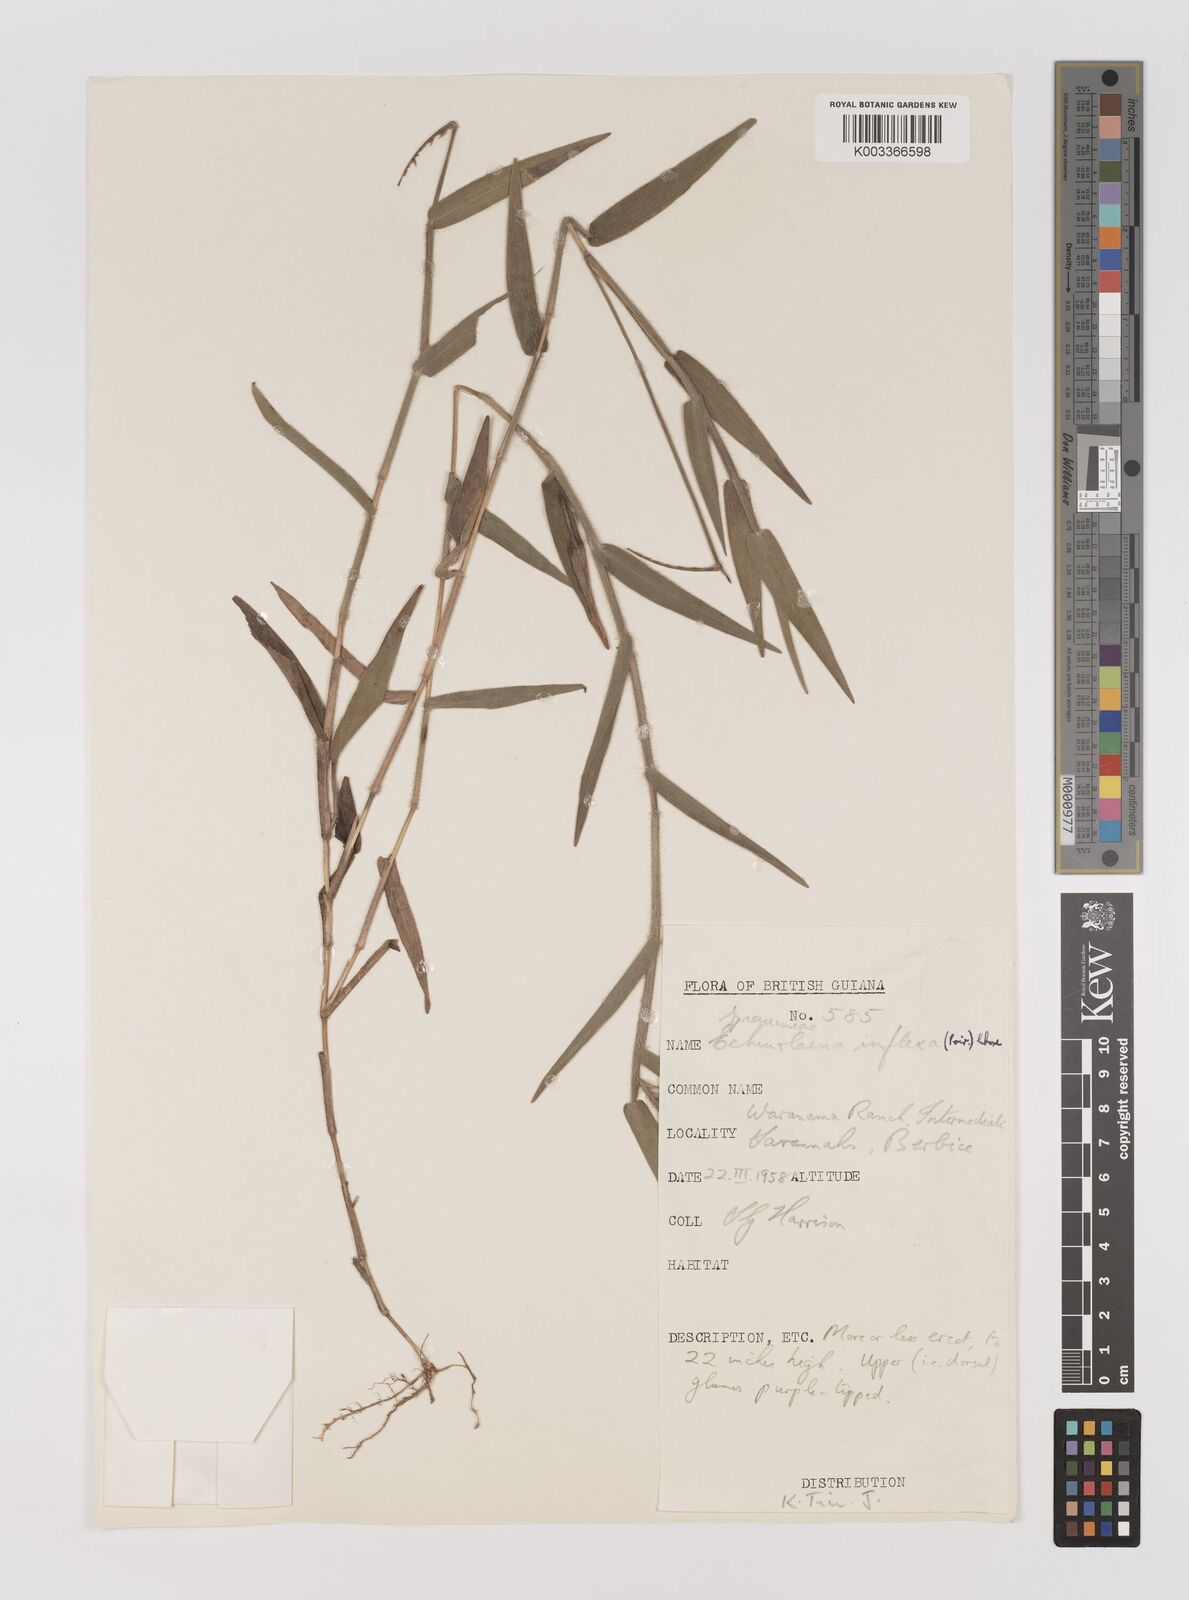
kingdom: Plantae
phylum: Tracheophyta
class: Liliopsida
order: Poales
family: Poaceae
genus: Echinolaena
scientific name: Echinolaena inflexa
